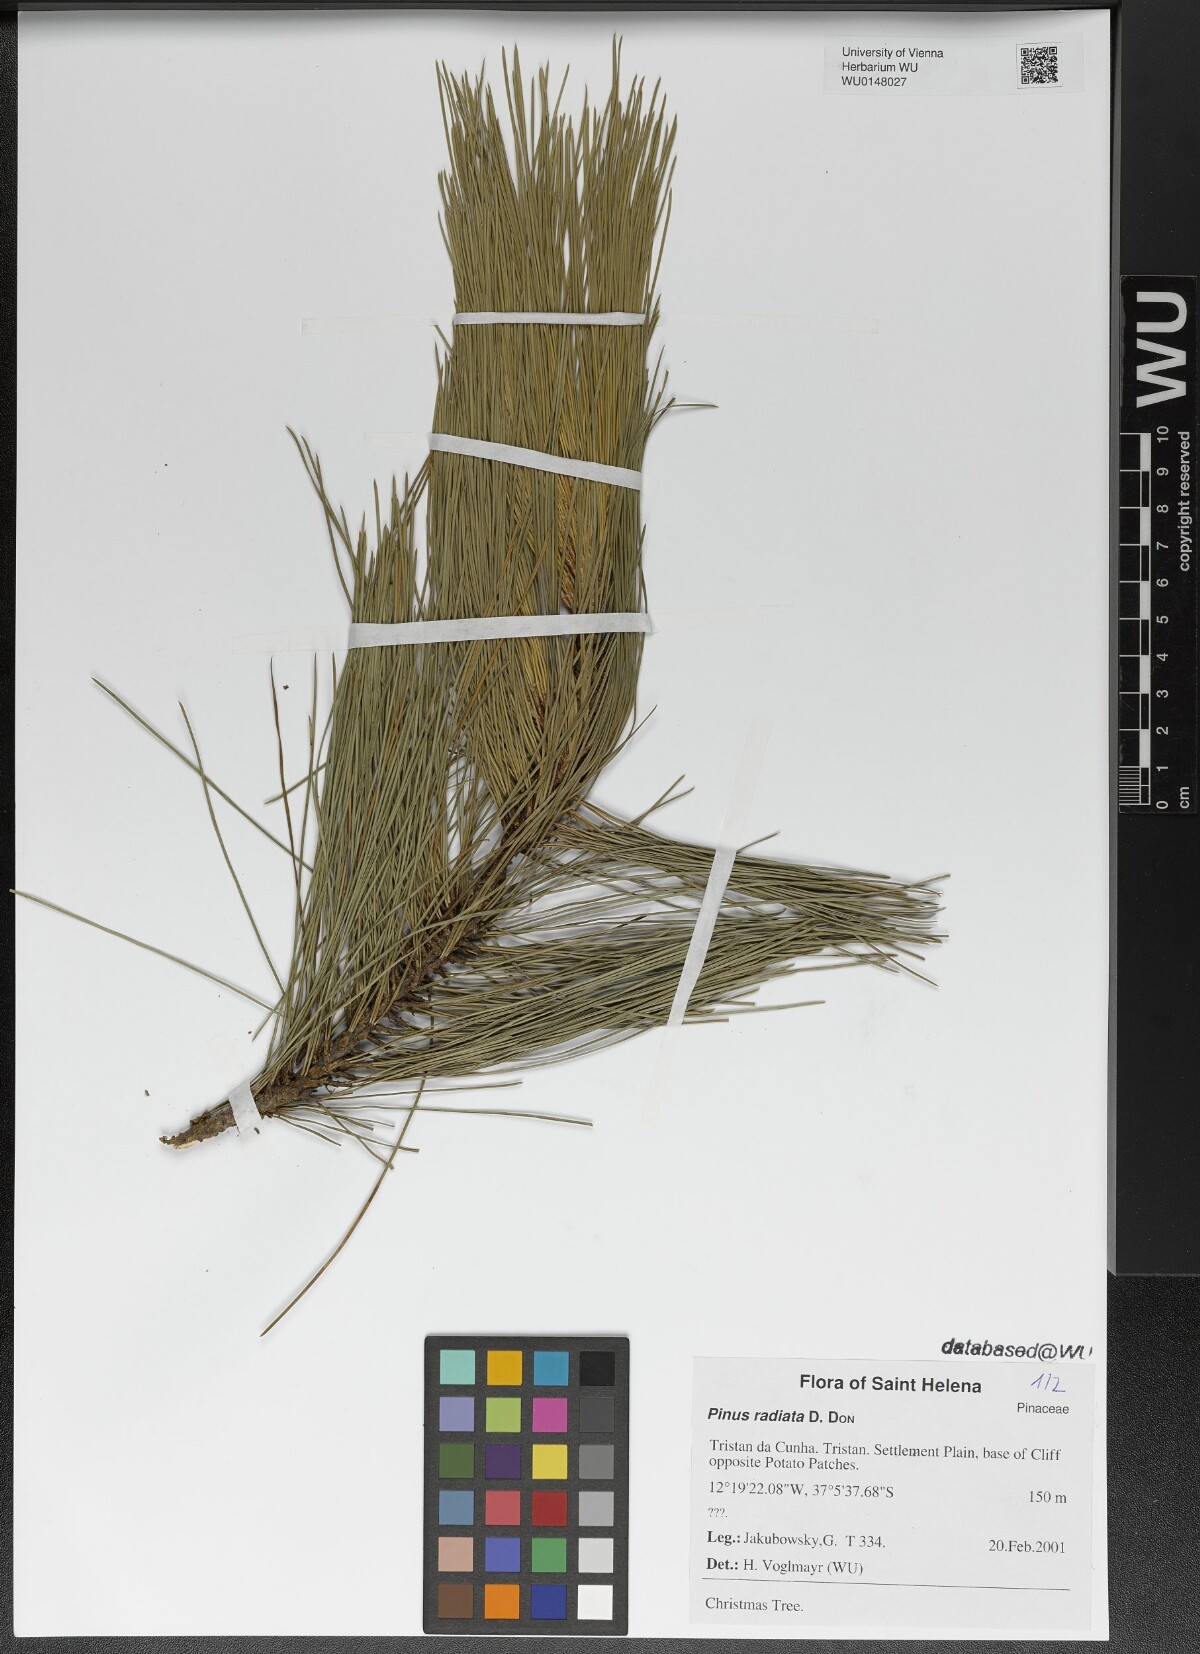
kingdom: Plantae
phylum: Tracheophyta
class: Pinopsida
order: Pinales
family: Pinaceae
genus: Pinus
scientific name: Pinus radiata
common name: Monterey pine
